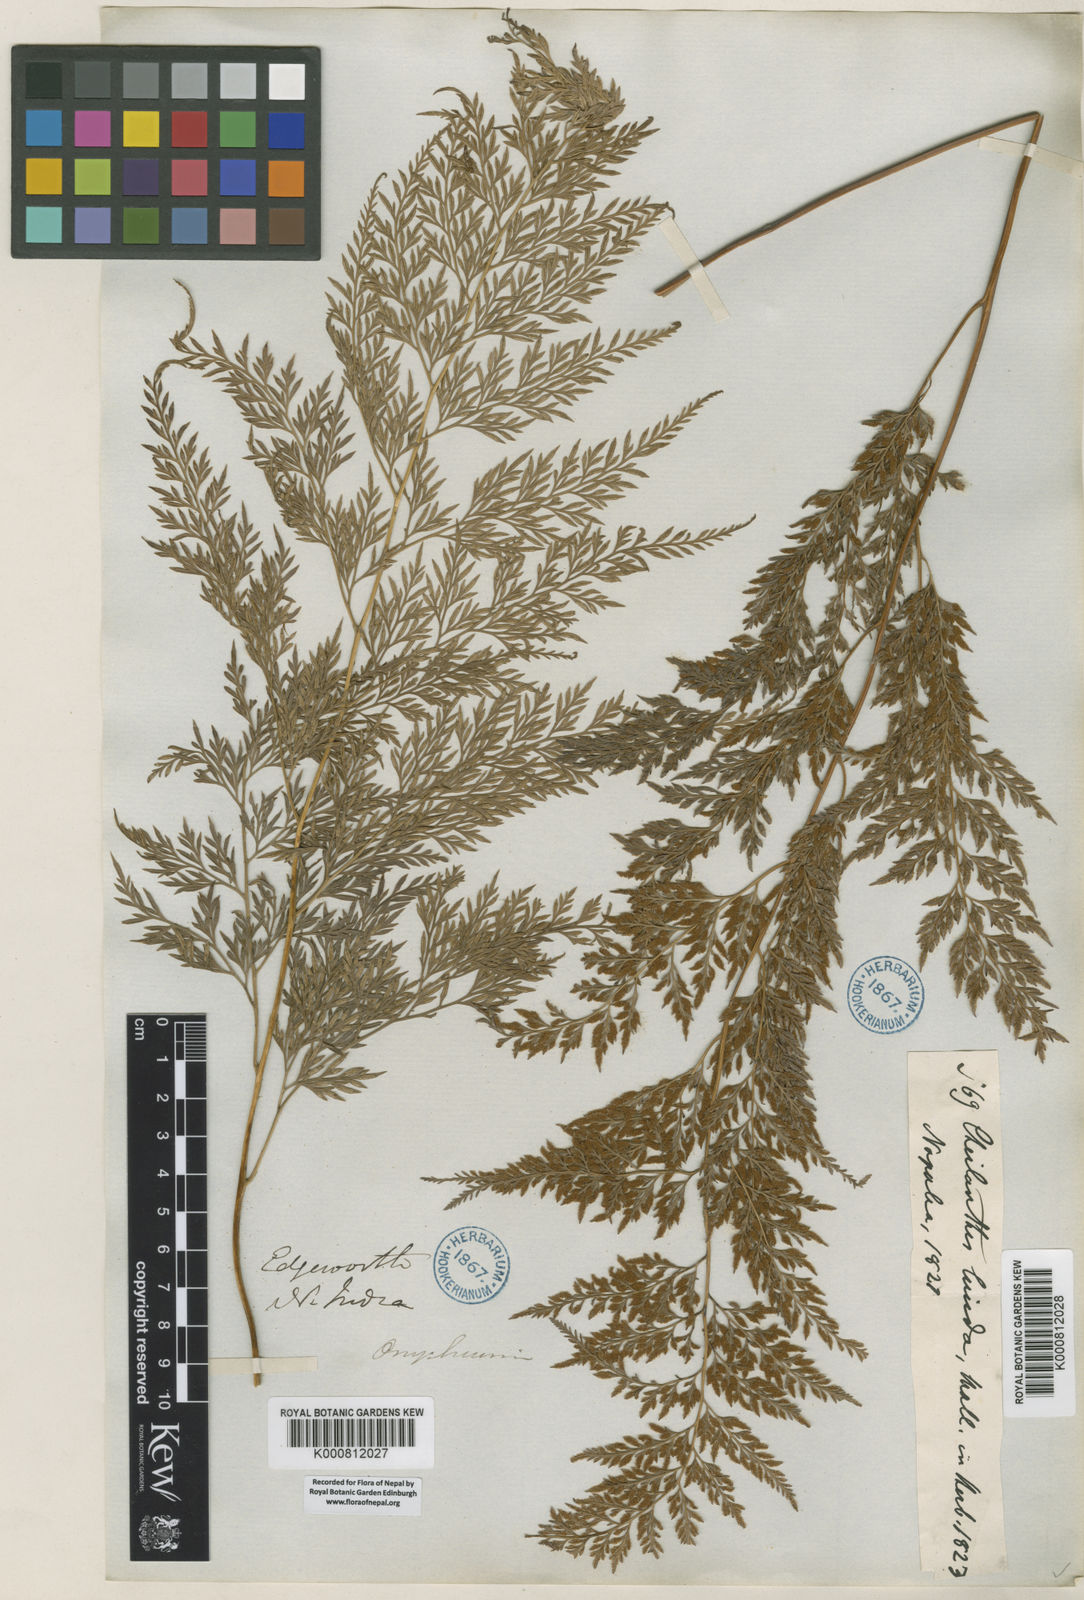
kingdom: Plantae
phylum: Tracheophyta
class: Polypodiopsida
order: Polypodiales
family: Pteridaceae
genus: Onychium
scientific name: Onychium lucidum
